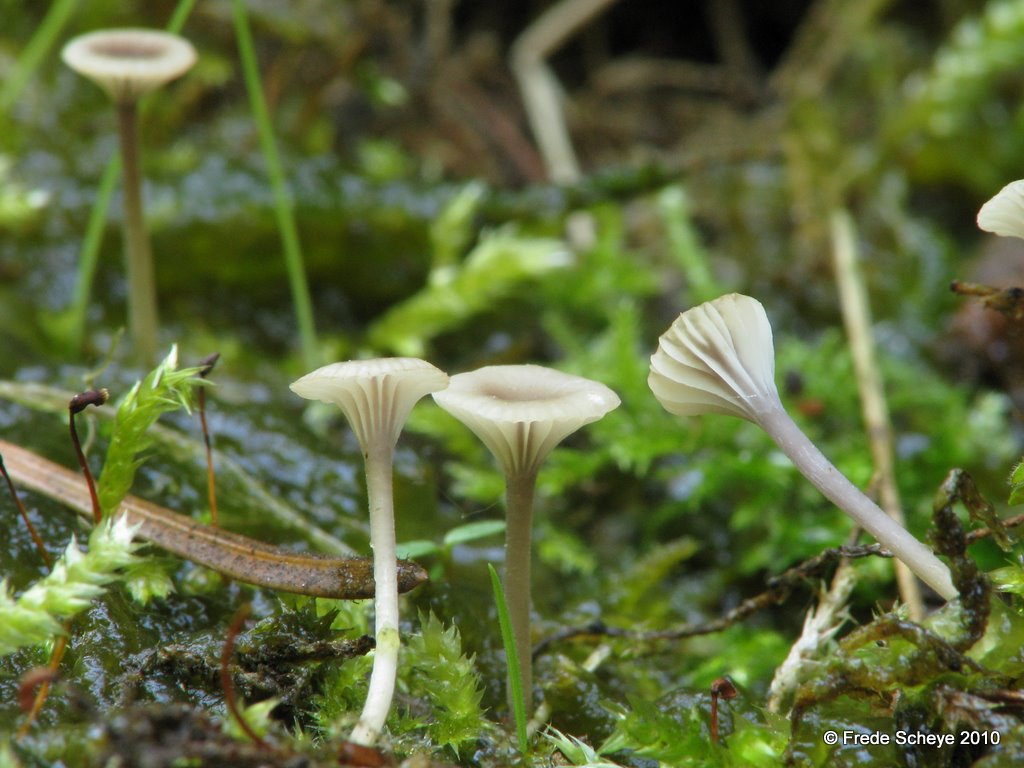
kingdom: Fungi
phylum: Basidiomycota
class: Agaricomycetes
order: Hymenochaetales
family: Rickenellaceae
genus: Rickenella
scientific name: Rickenella swartzii
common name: finstokket mosnavlehat
